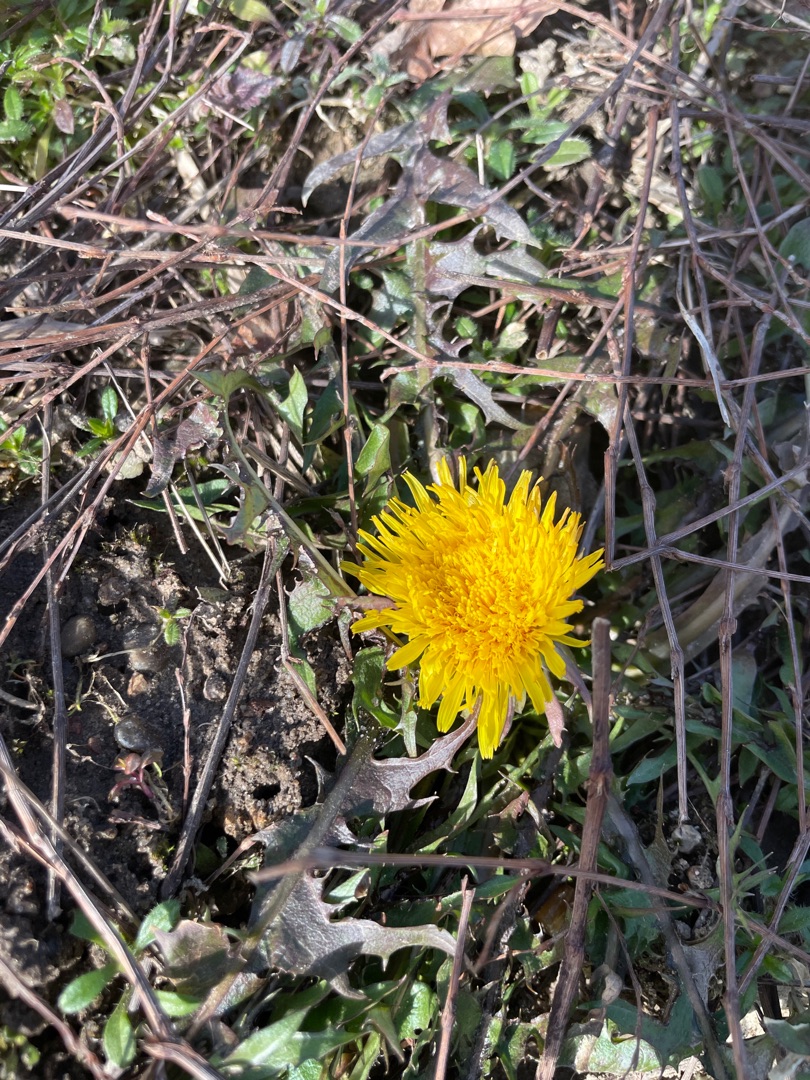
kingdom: Plantae
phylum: Tracheophyta
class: Magnoliopsida
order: Asterales
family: Asteraceae
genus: Taraxacum
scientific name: Taraxacum
